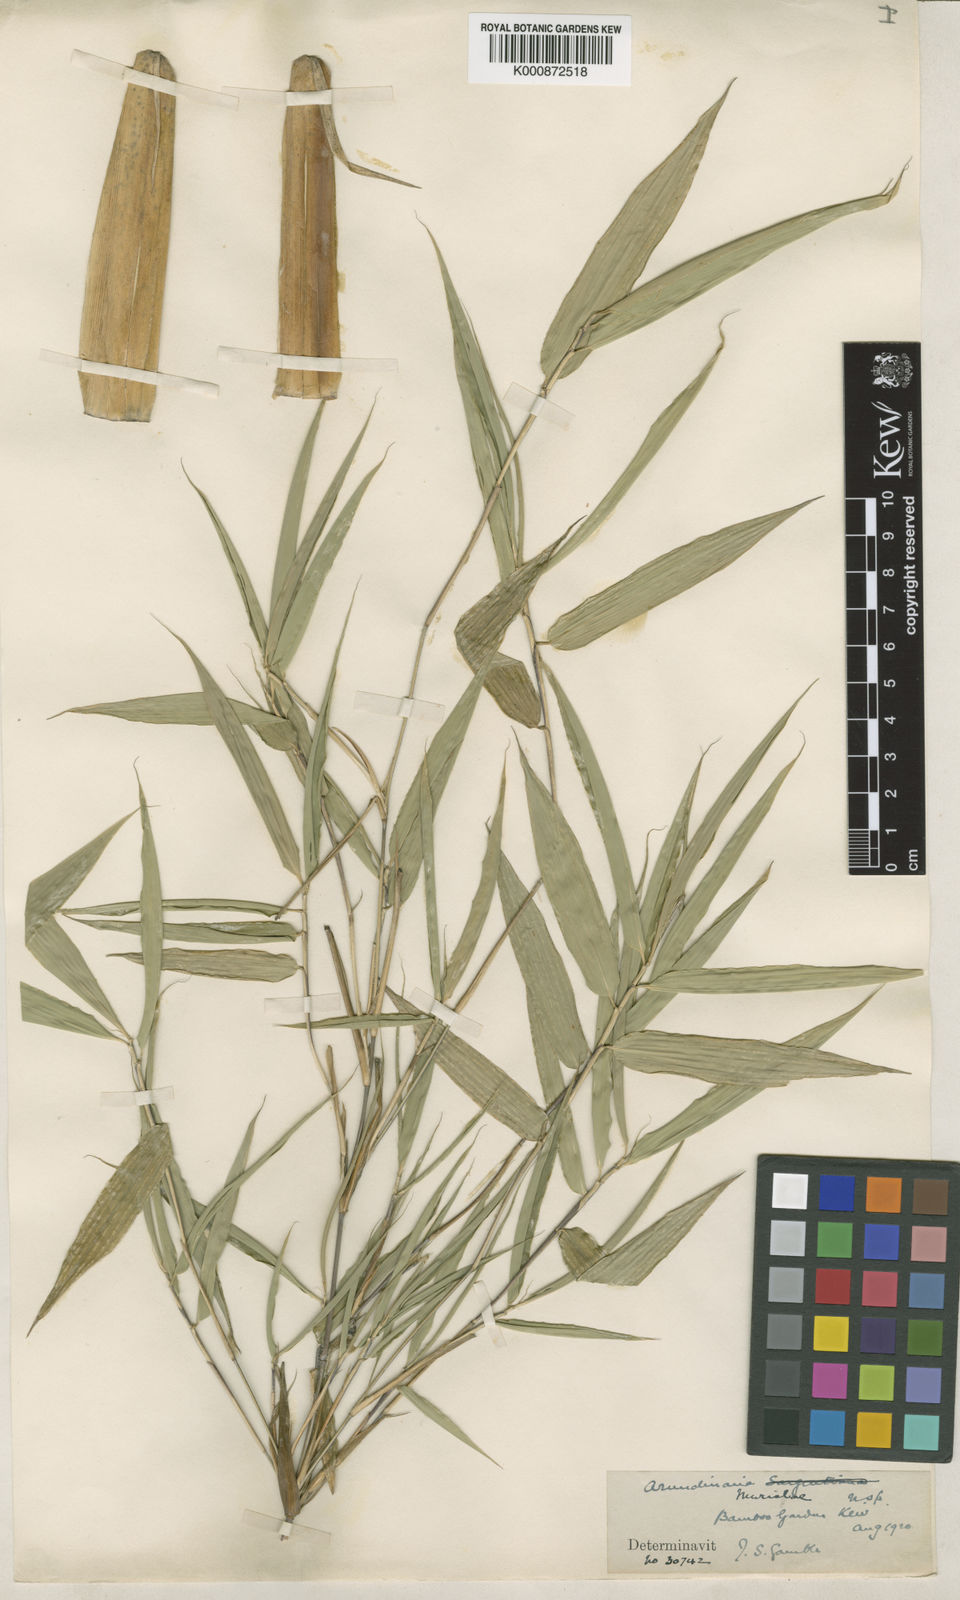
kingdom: Plantae
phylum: Tracheophyta
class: Liliopsida
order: Poales
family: Poaceae
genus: Fargesia
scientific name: Fargesia murielae
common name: Umbrella bamboo
